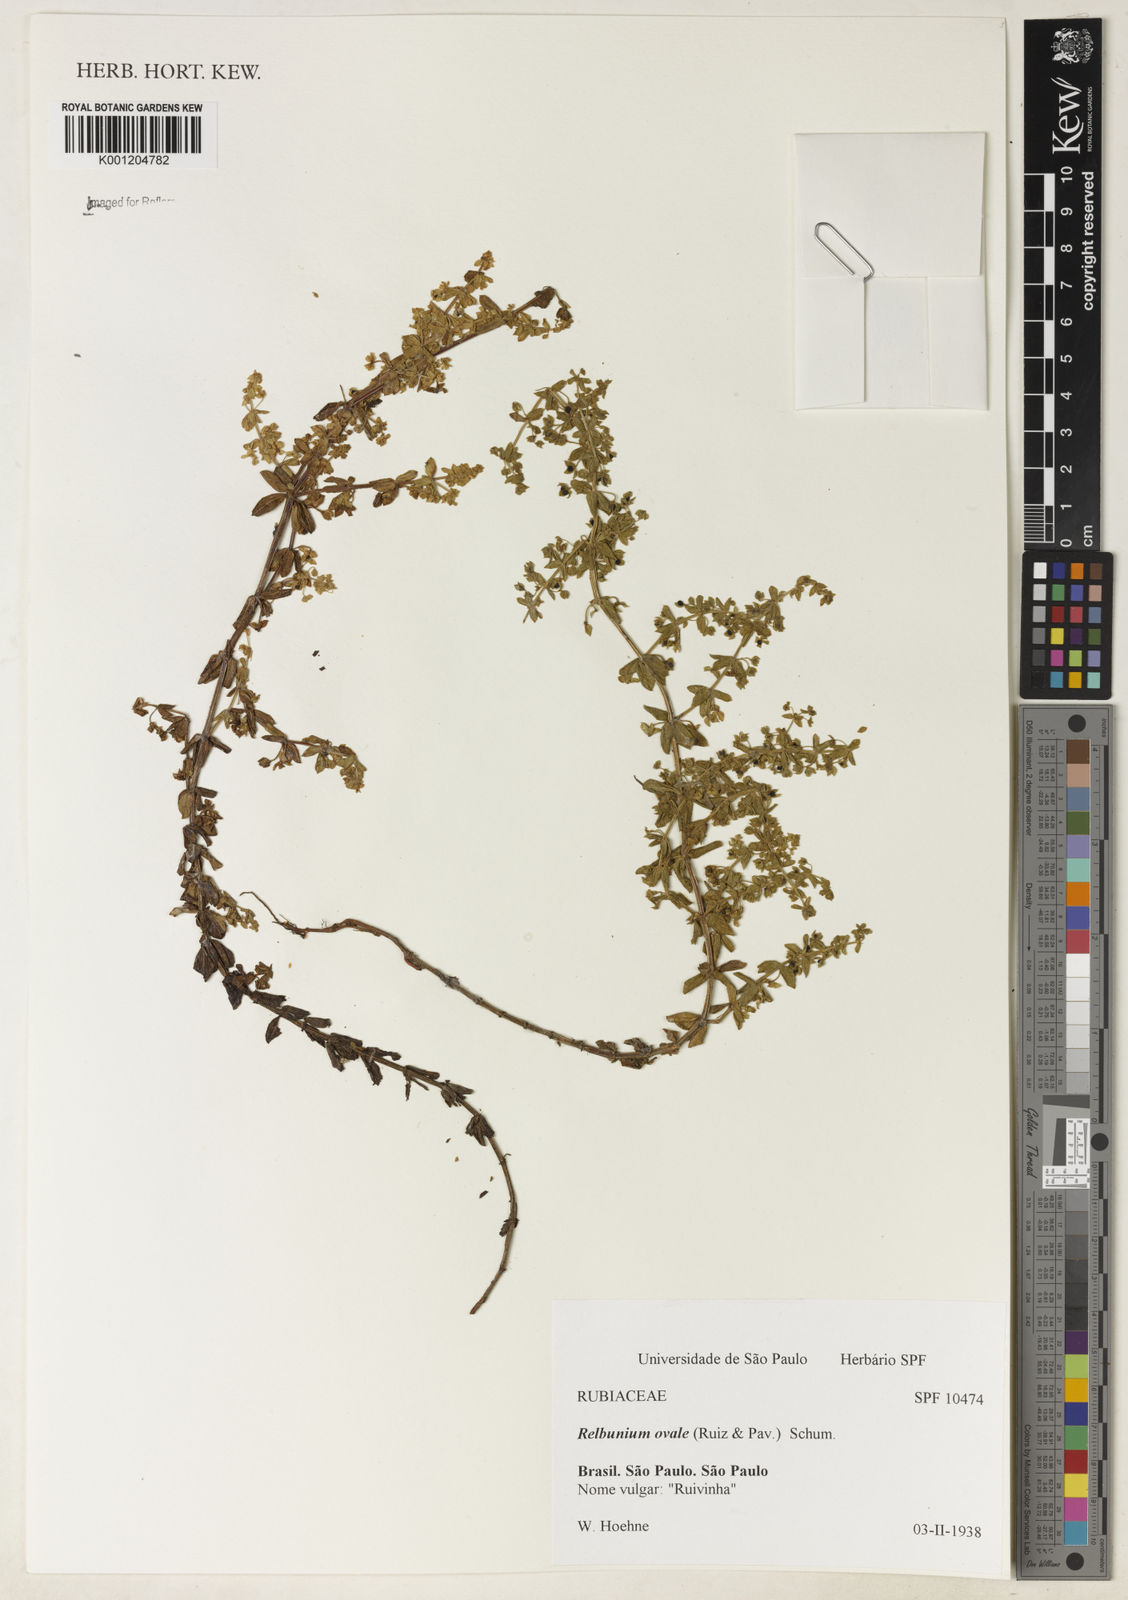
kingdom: Plantae
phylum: Tracheophyta
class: Magnoliopsida
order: Gentianales
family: Rubiaceae
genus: Galium
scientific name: Galium hypocarpium
